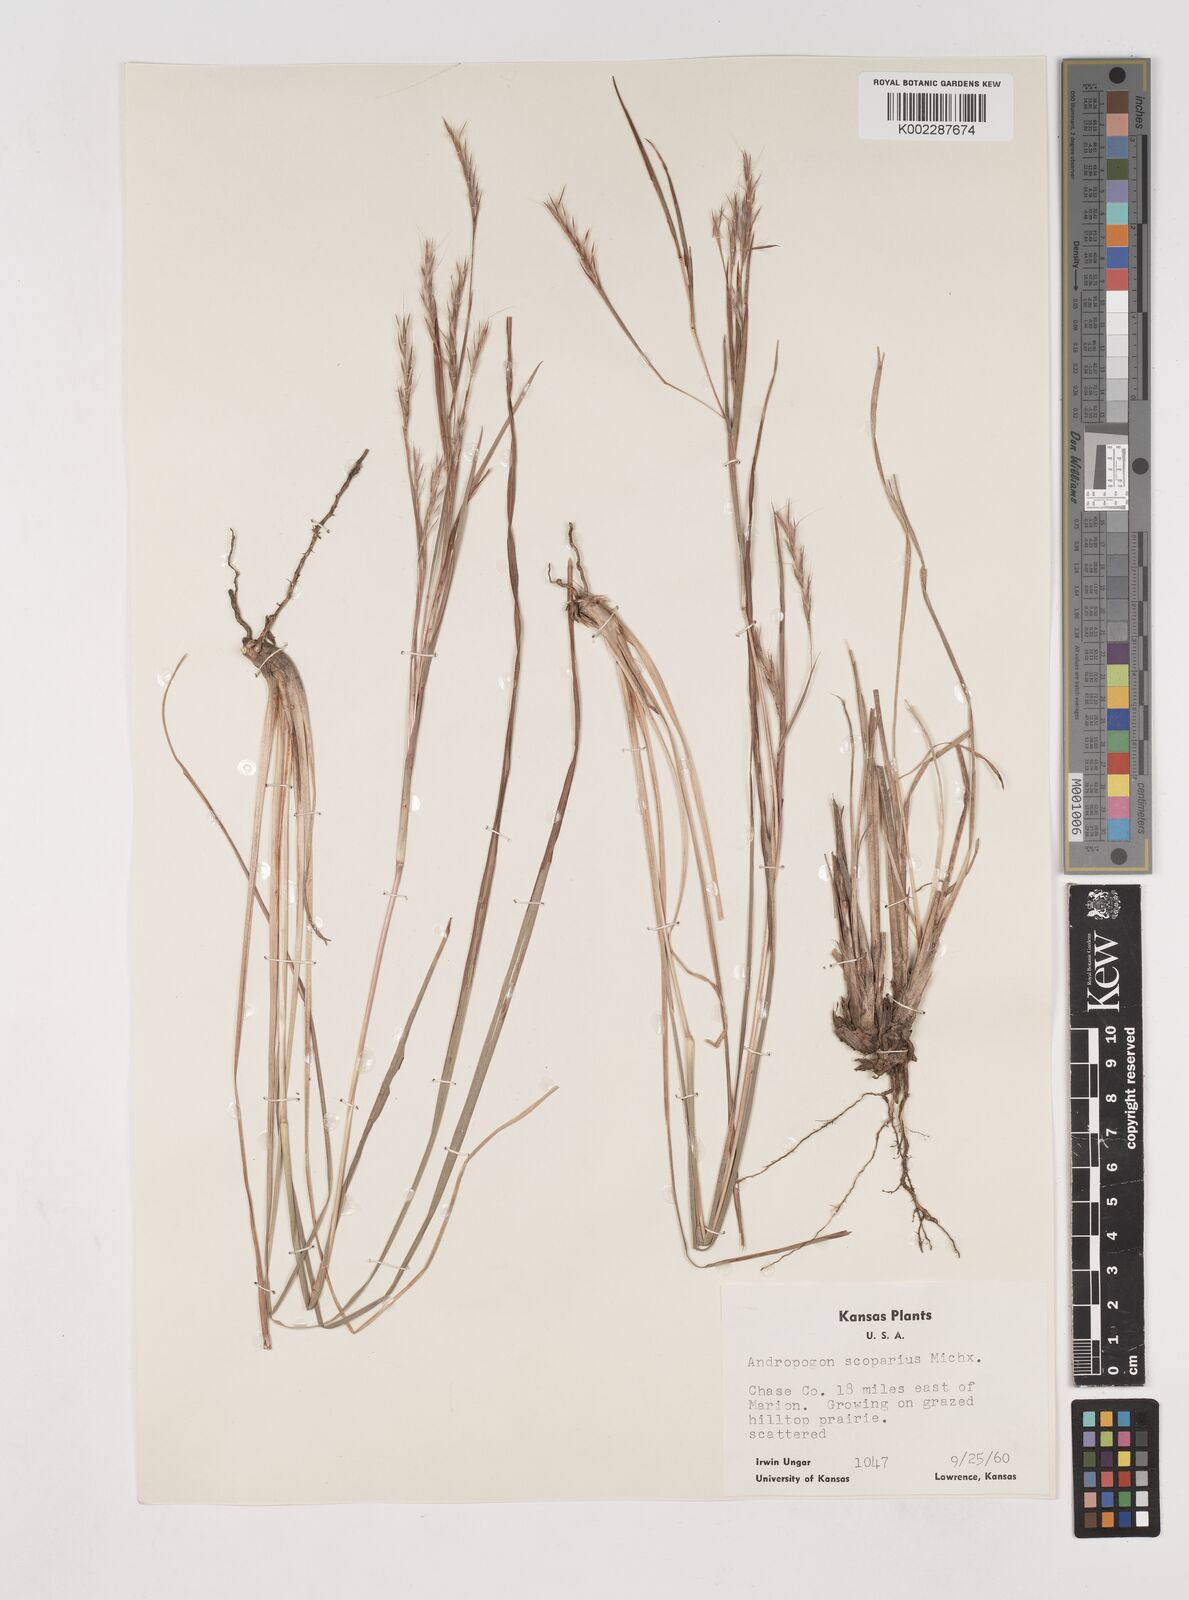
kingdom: Plantae
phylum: Tracheophyta
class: Liliopsida
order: Poales
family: Poaceae
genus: Schizachyrium
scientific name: Schizachyrium scoparium
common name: Little bluestem
